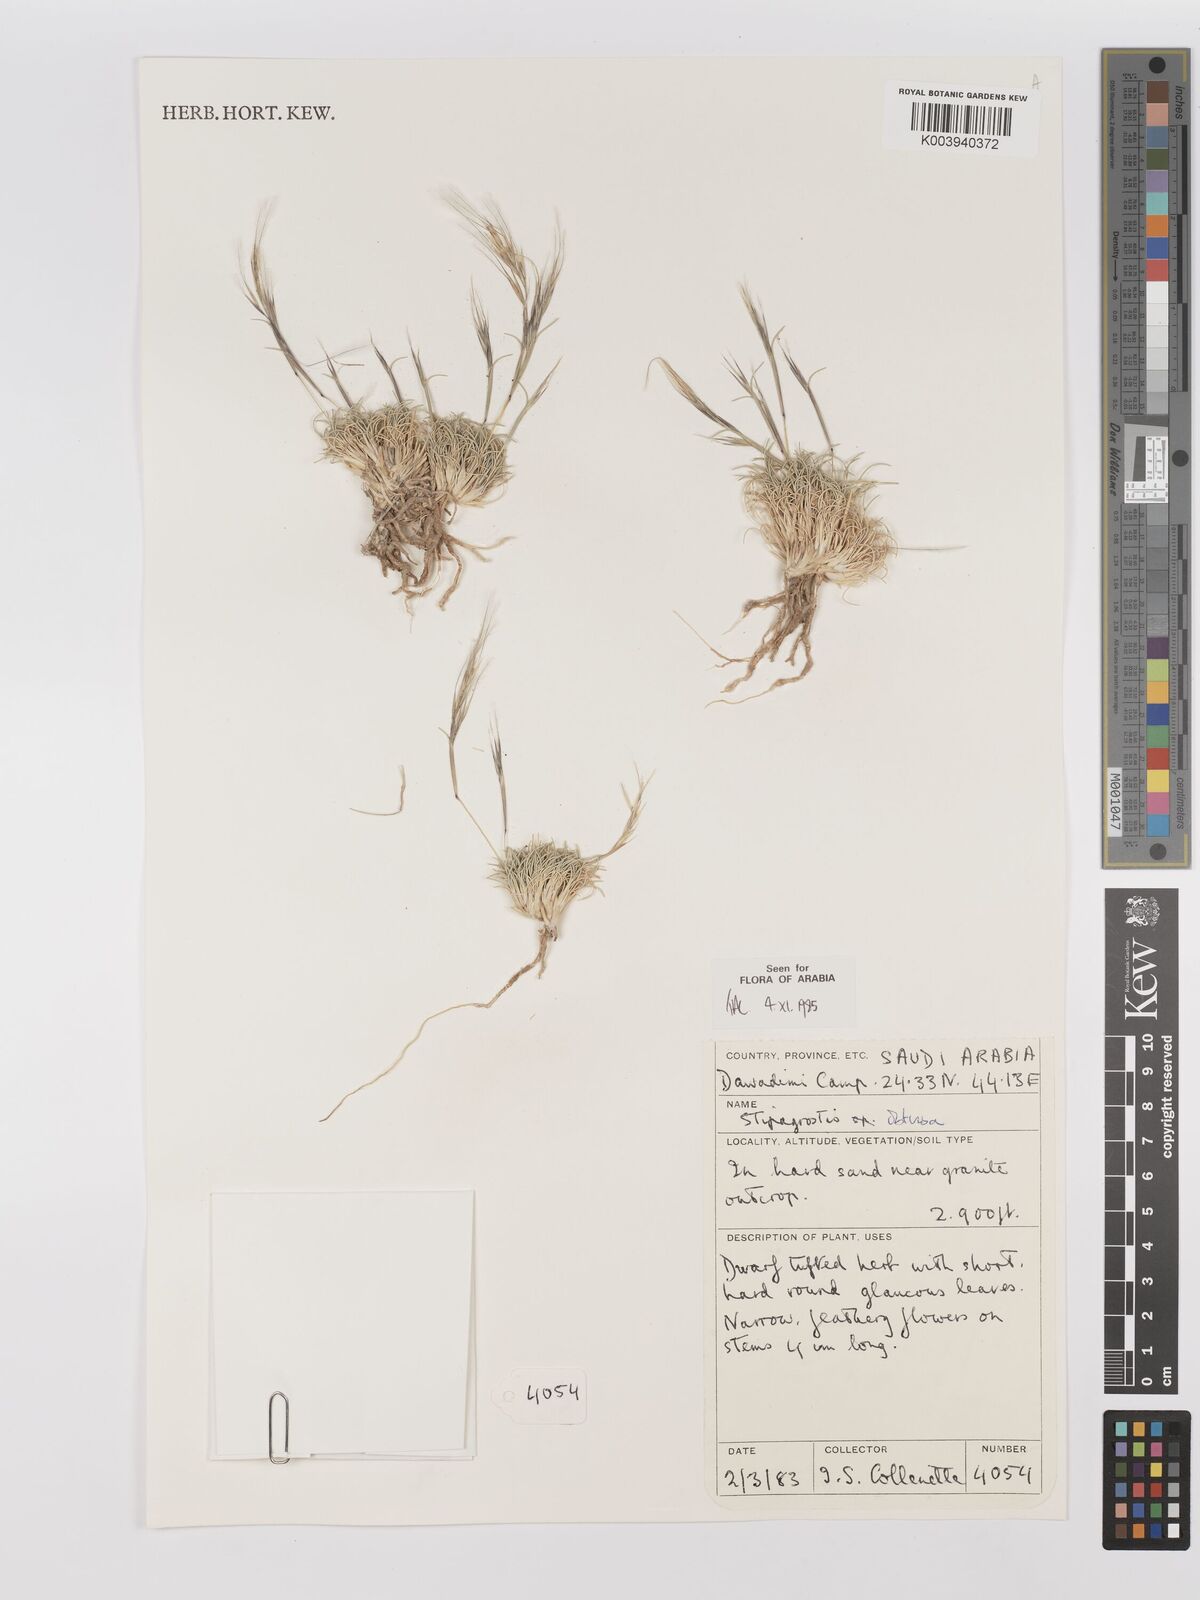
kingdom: Plantae
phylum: Tracheophyta
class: Liliopsida
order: Poales
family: Poaceae
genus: Stipagrostis
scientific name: Stipagrostis obtusa
